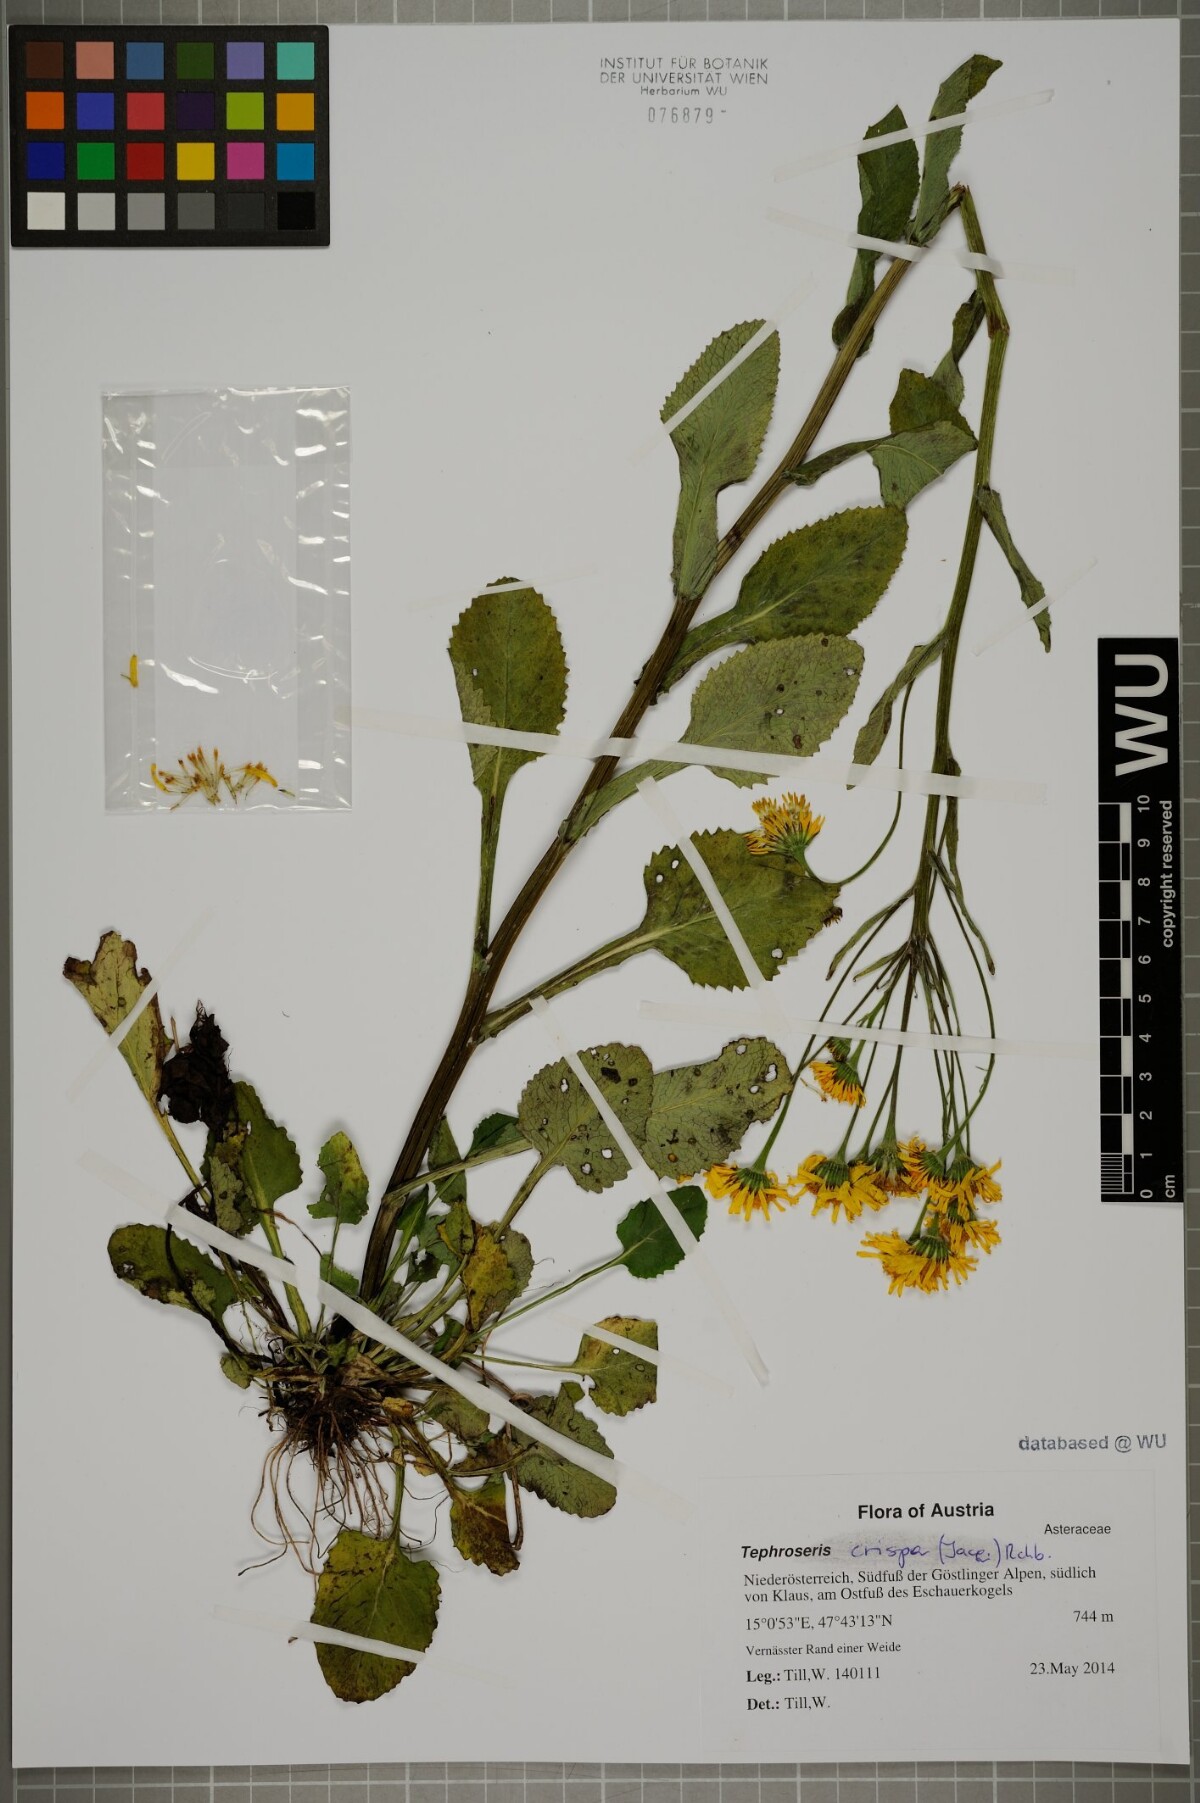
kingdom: Plantae
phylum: Tracheophyta
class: Magnoliopsida
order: Asterales
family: Asteraceae
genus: Tephroseris
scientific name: Tephroseris crispa
